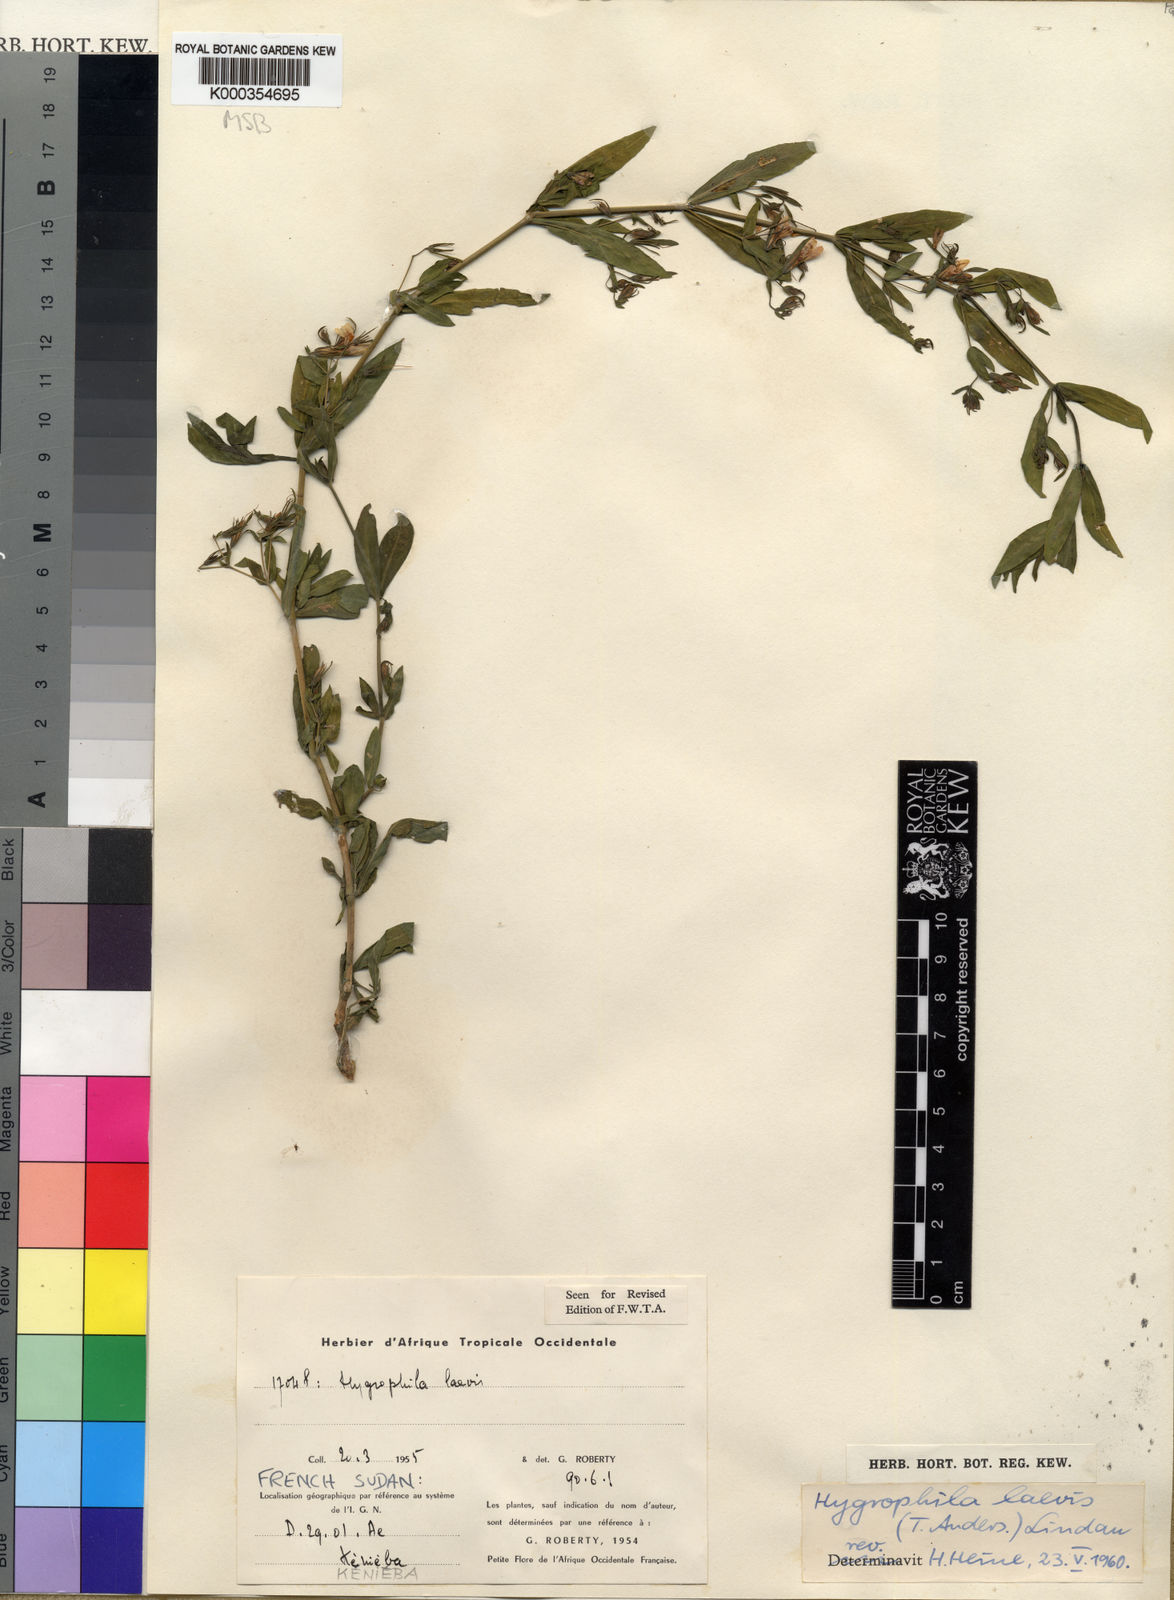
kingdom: Plantae
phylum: Tracheophyta
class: Magnoliopsida
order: Lamiales
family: Acanthaceae
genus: Hygrophila
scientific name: Hygrophila laevis
